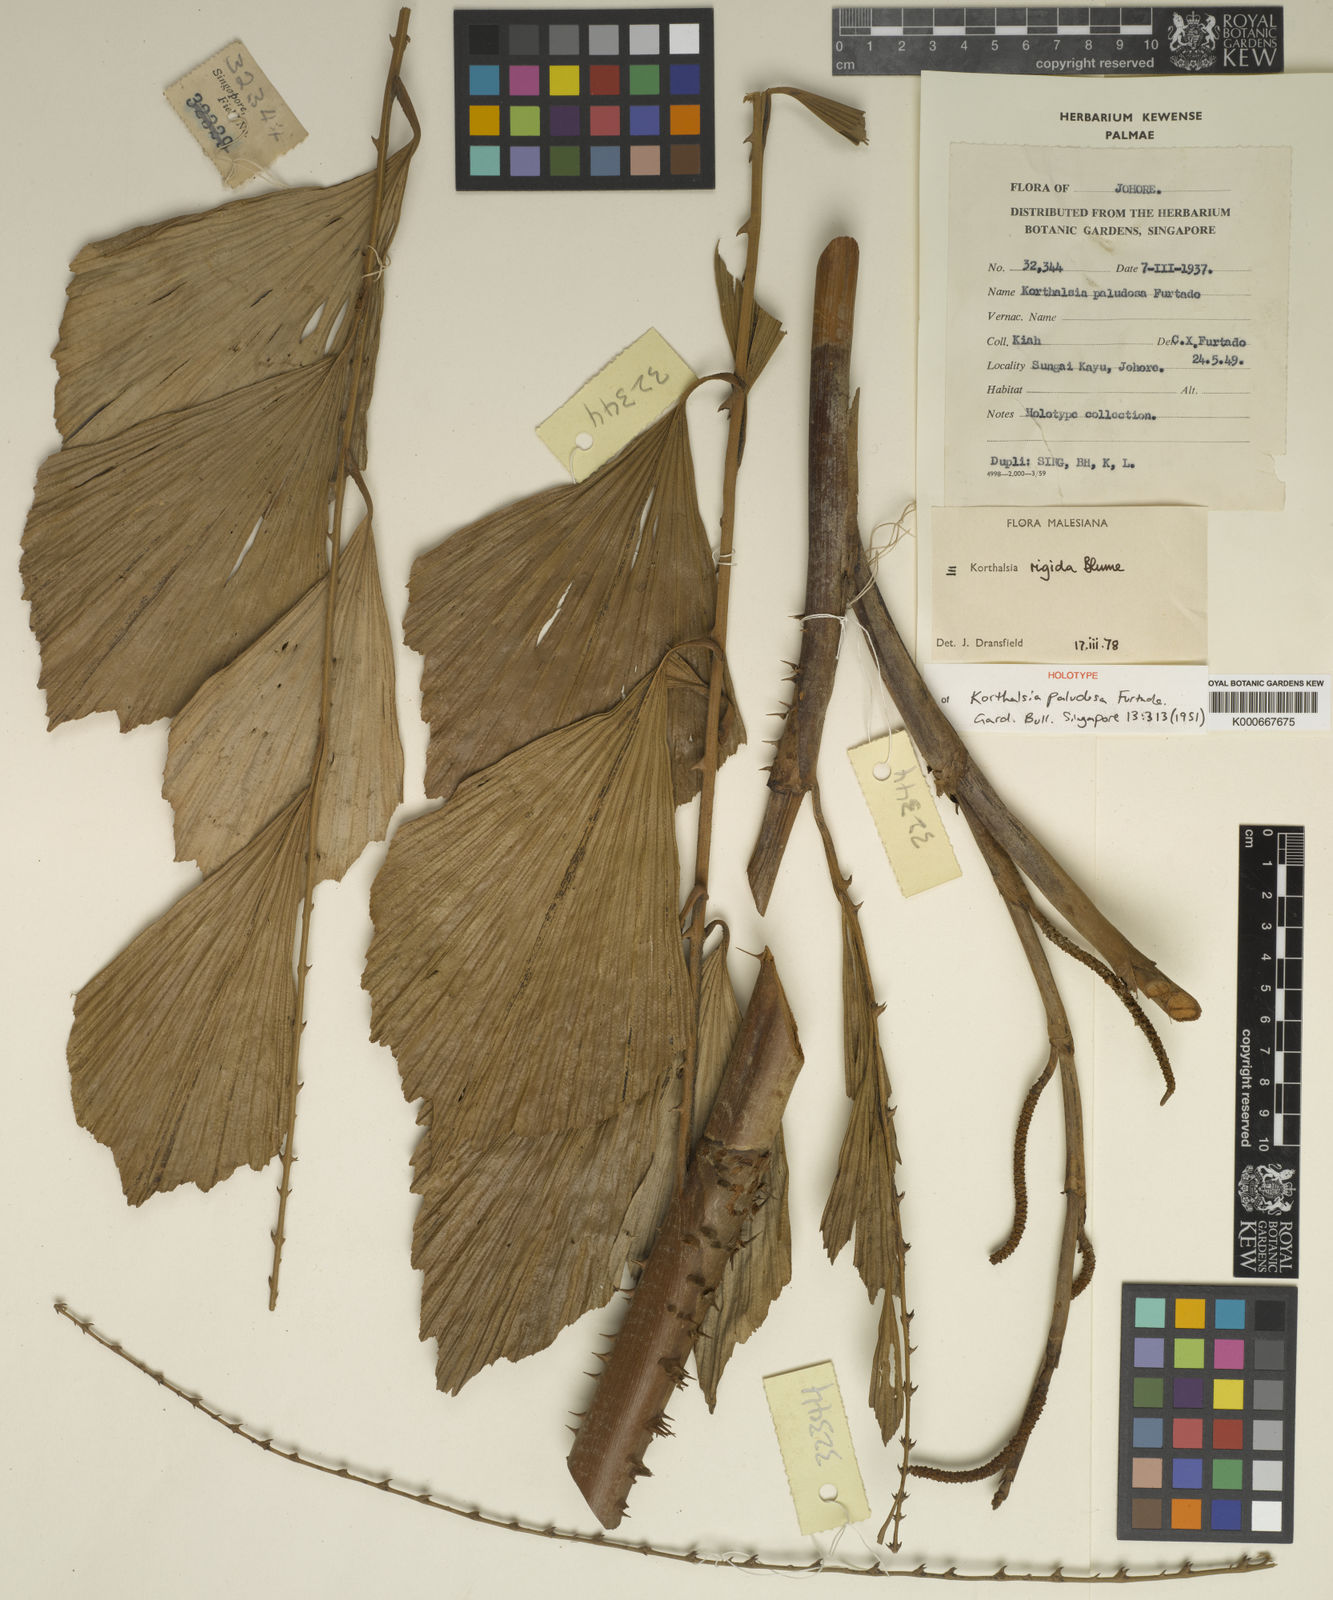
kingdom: Plantae
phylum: Tracheophyta
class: Liliopsida
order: Arecales
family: Arecaceae
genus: Korthalsia
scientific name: Korthalsia rigida
